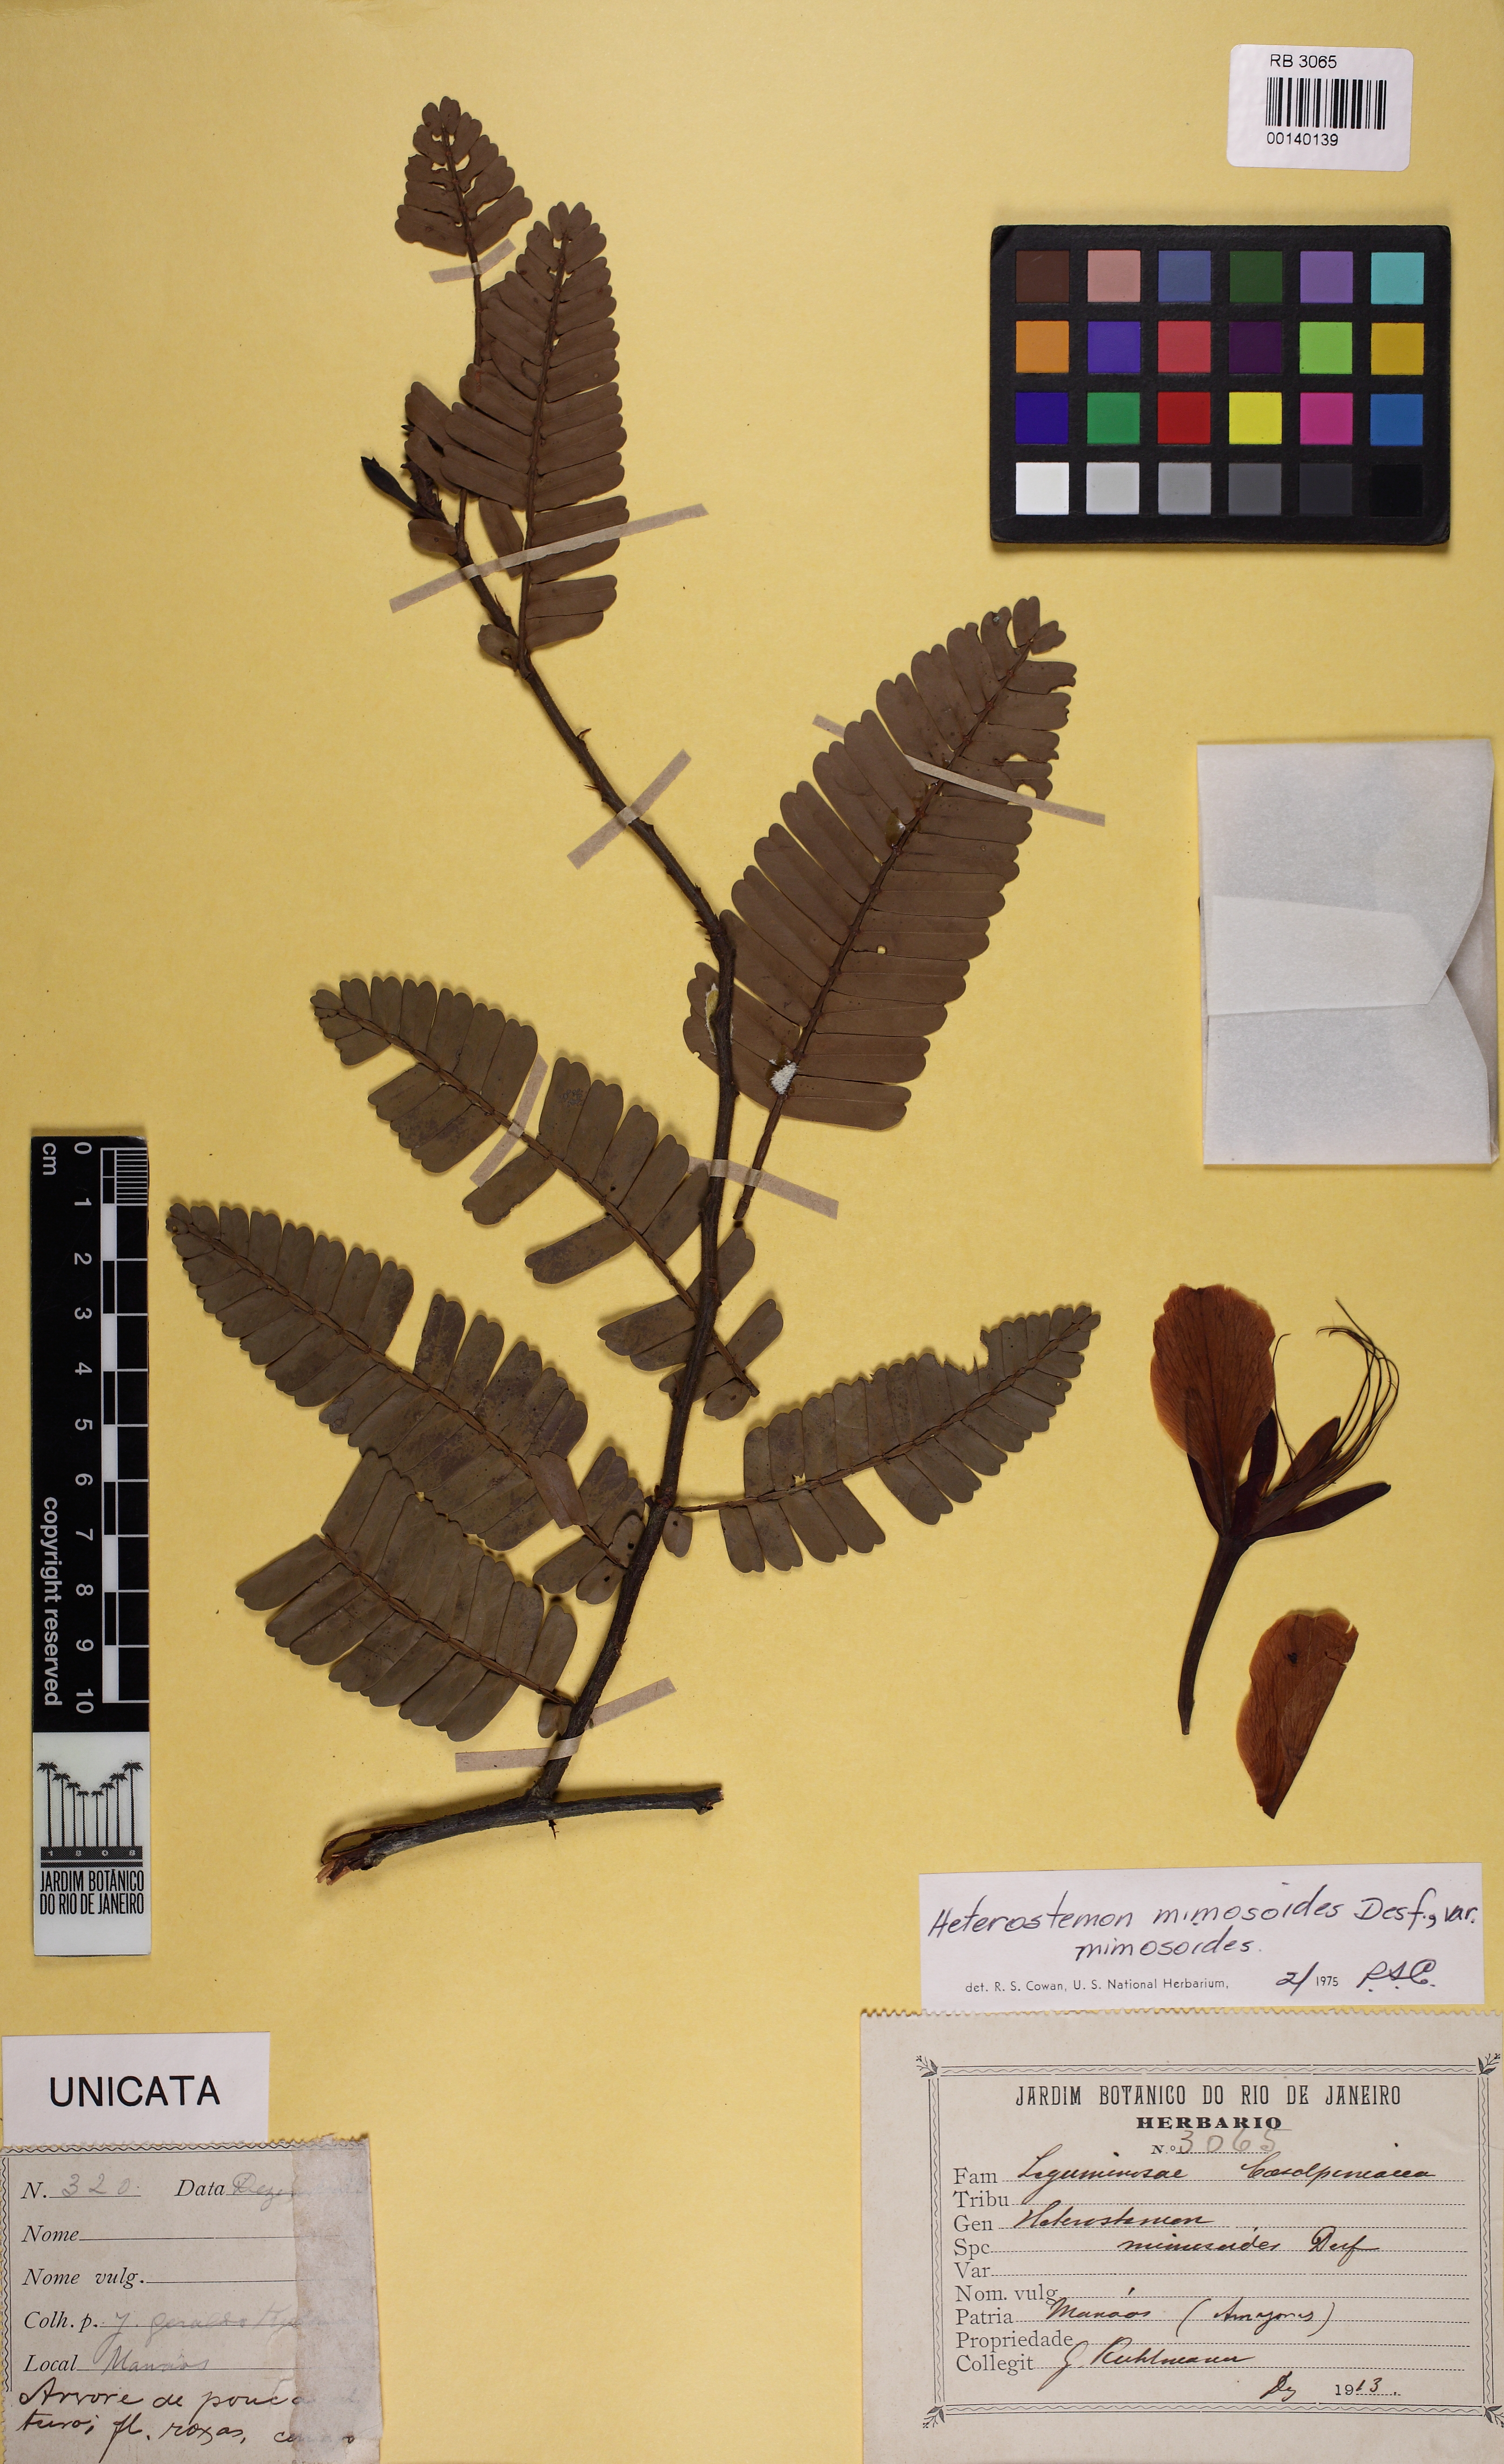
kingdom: Plantae
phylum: Tracheophyta
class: Magnoliopsida
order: Fabales
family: Fabaceae
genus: Heterostemon
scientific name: Heterostemon mimosoides
